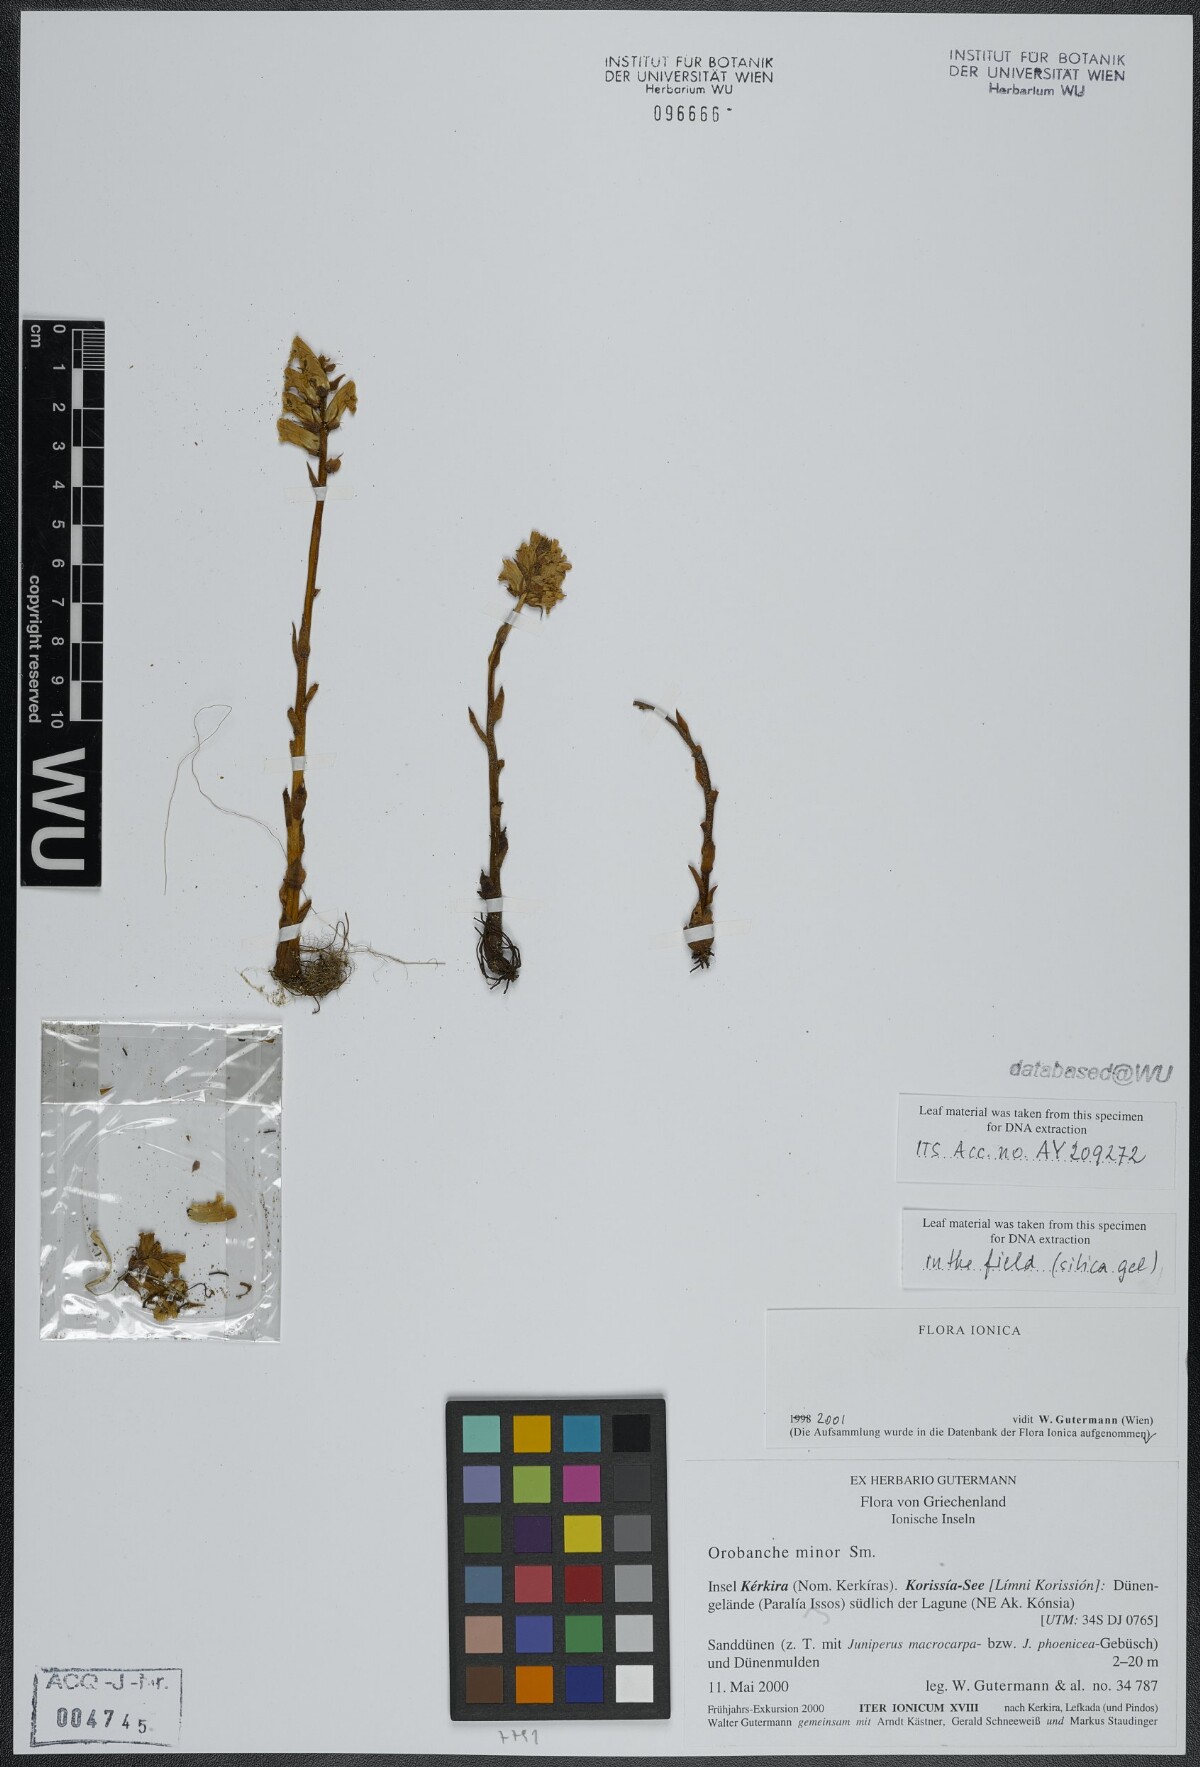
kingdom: Plantae
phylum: Tracheophyta
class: Magnoliopsida
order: Lamiales
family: Orobanchaceae
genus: Orobanche
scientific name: Orobanche grisebachii
